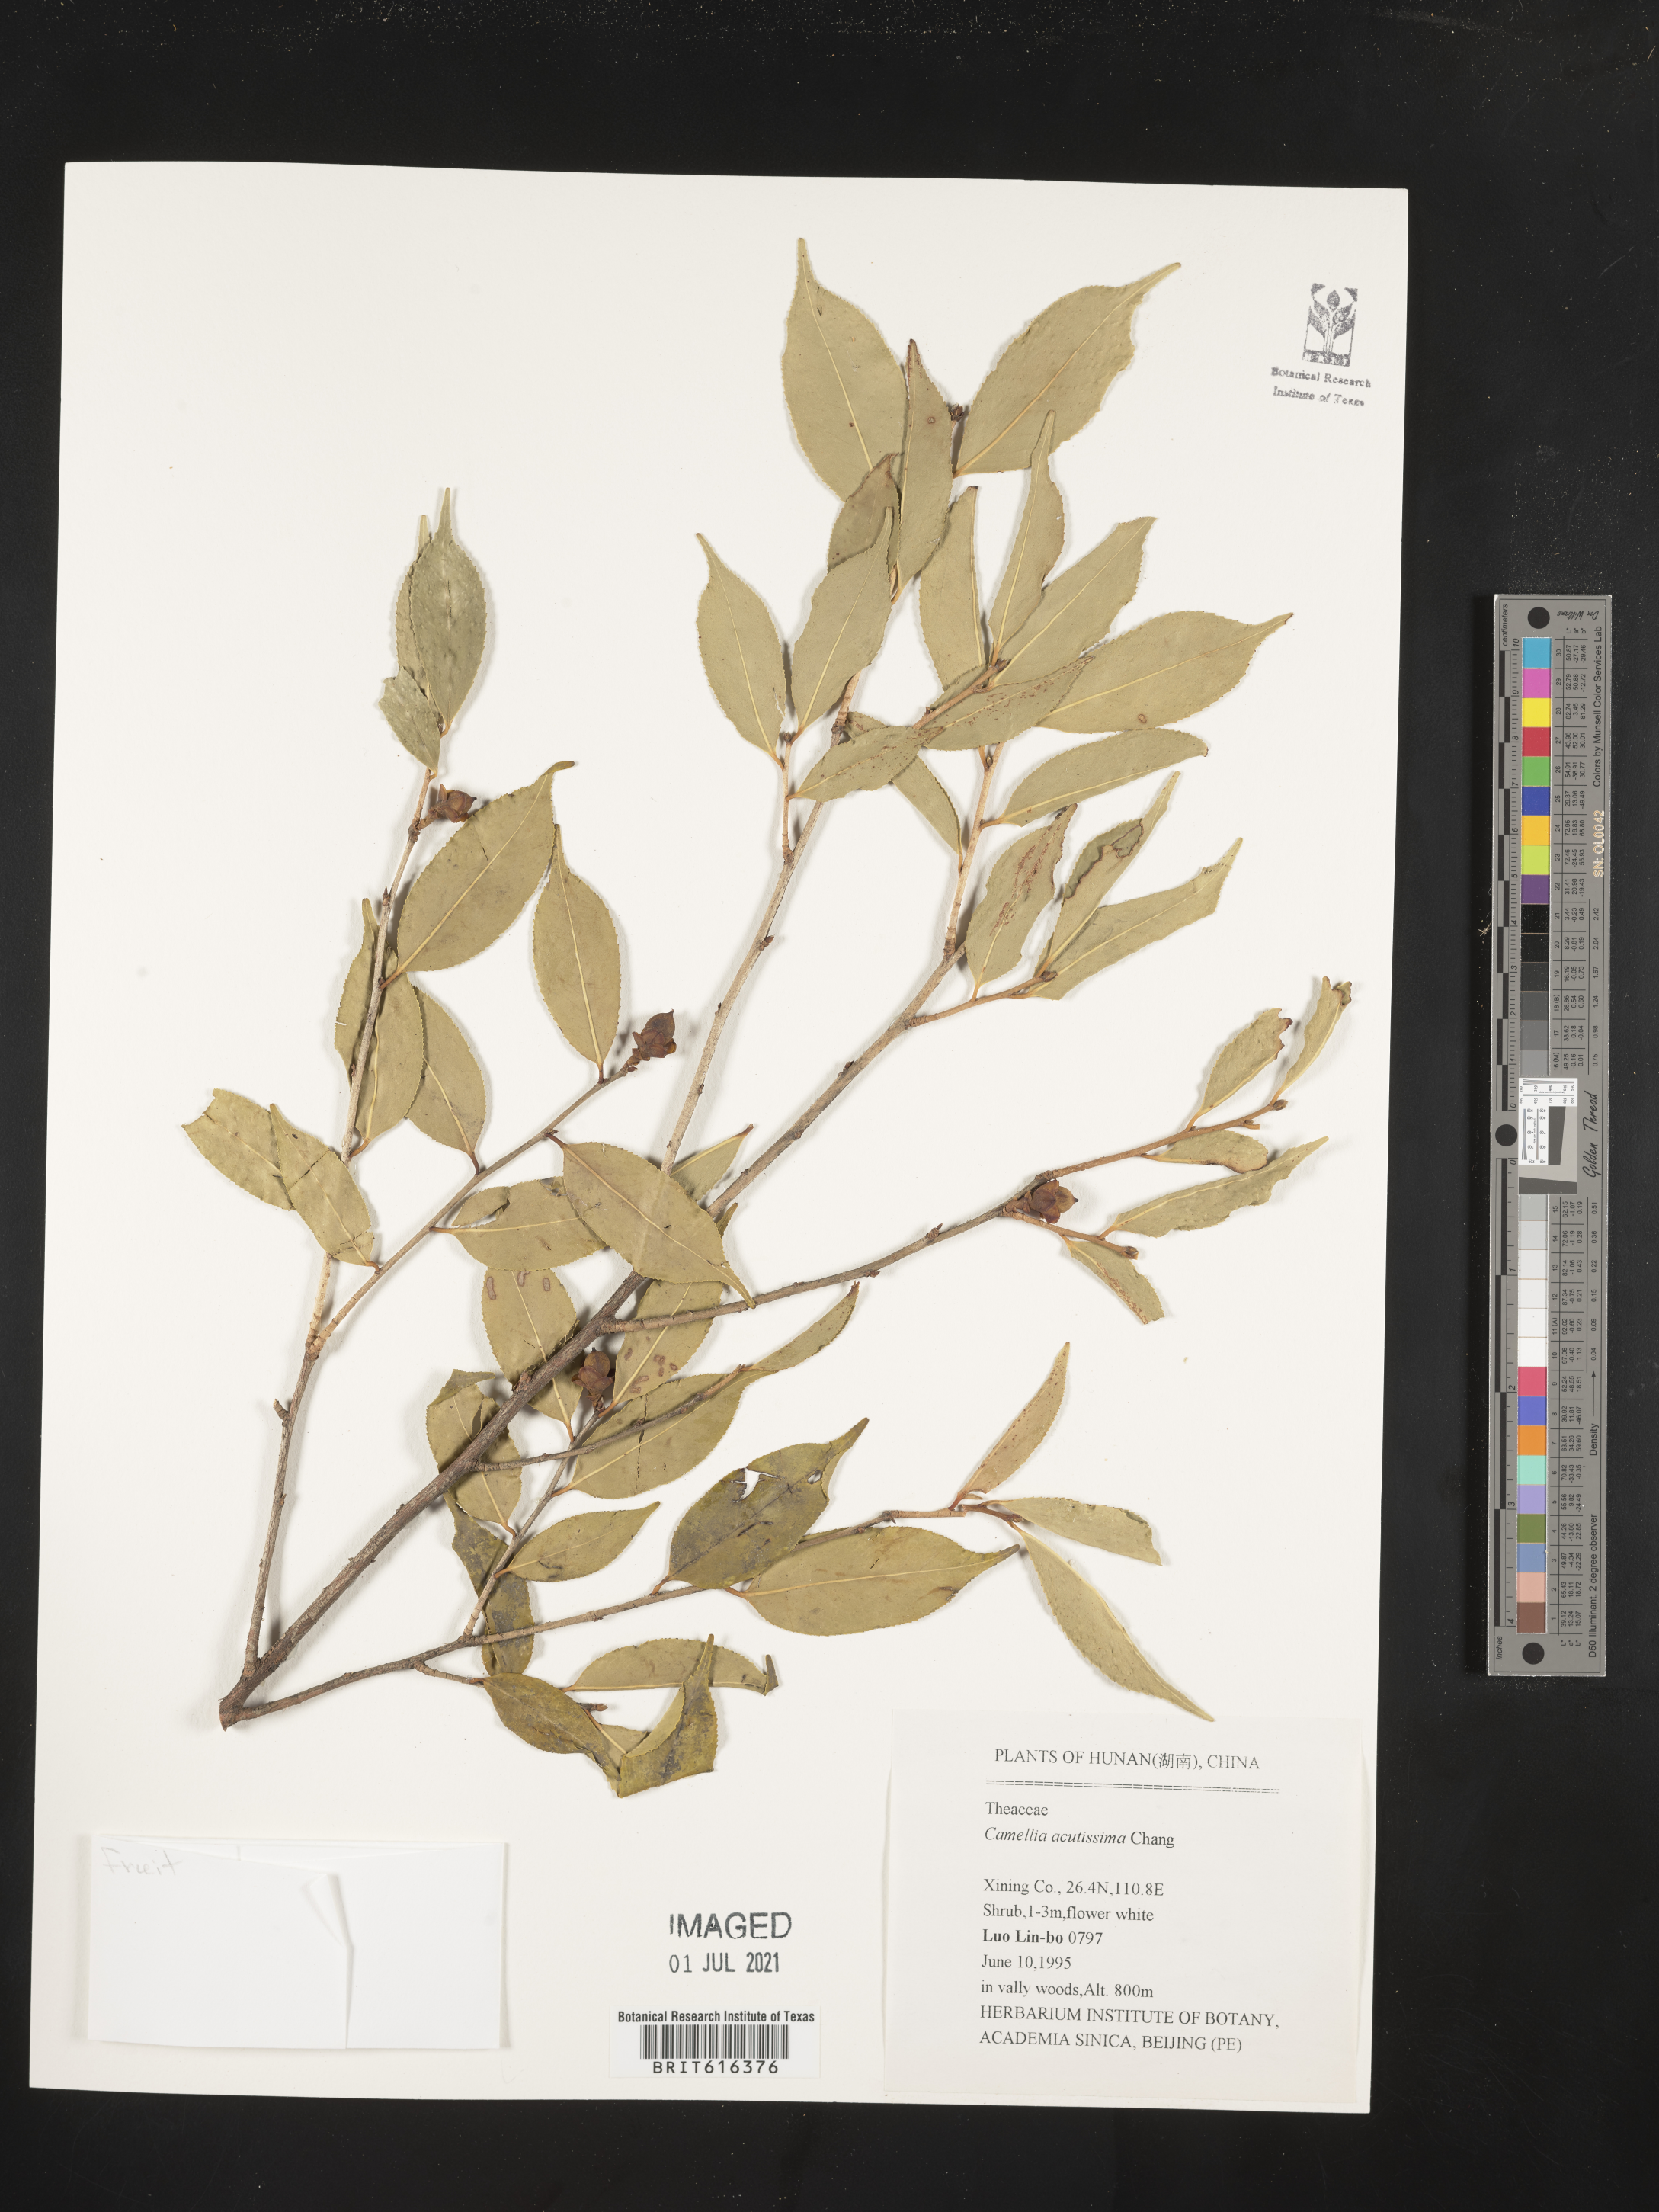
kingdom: Plantae
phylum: Tracheophyta
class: Magnoliopsida
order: Ericales
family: Theaceae
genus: Camellia
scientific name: Camellia cuspidata
